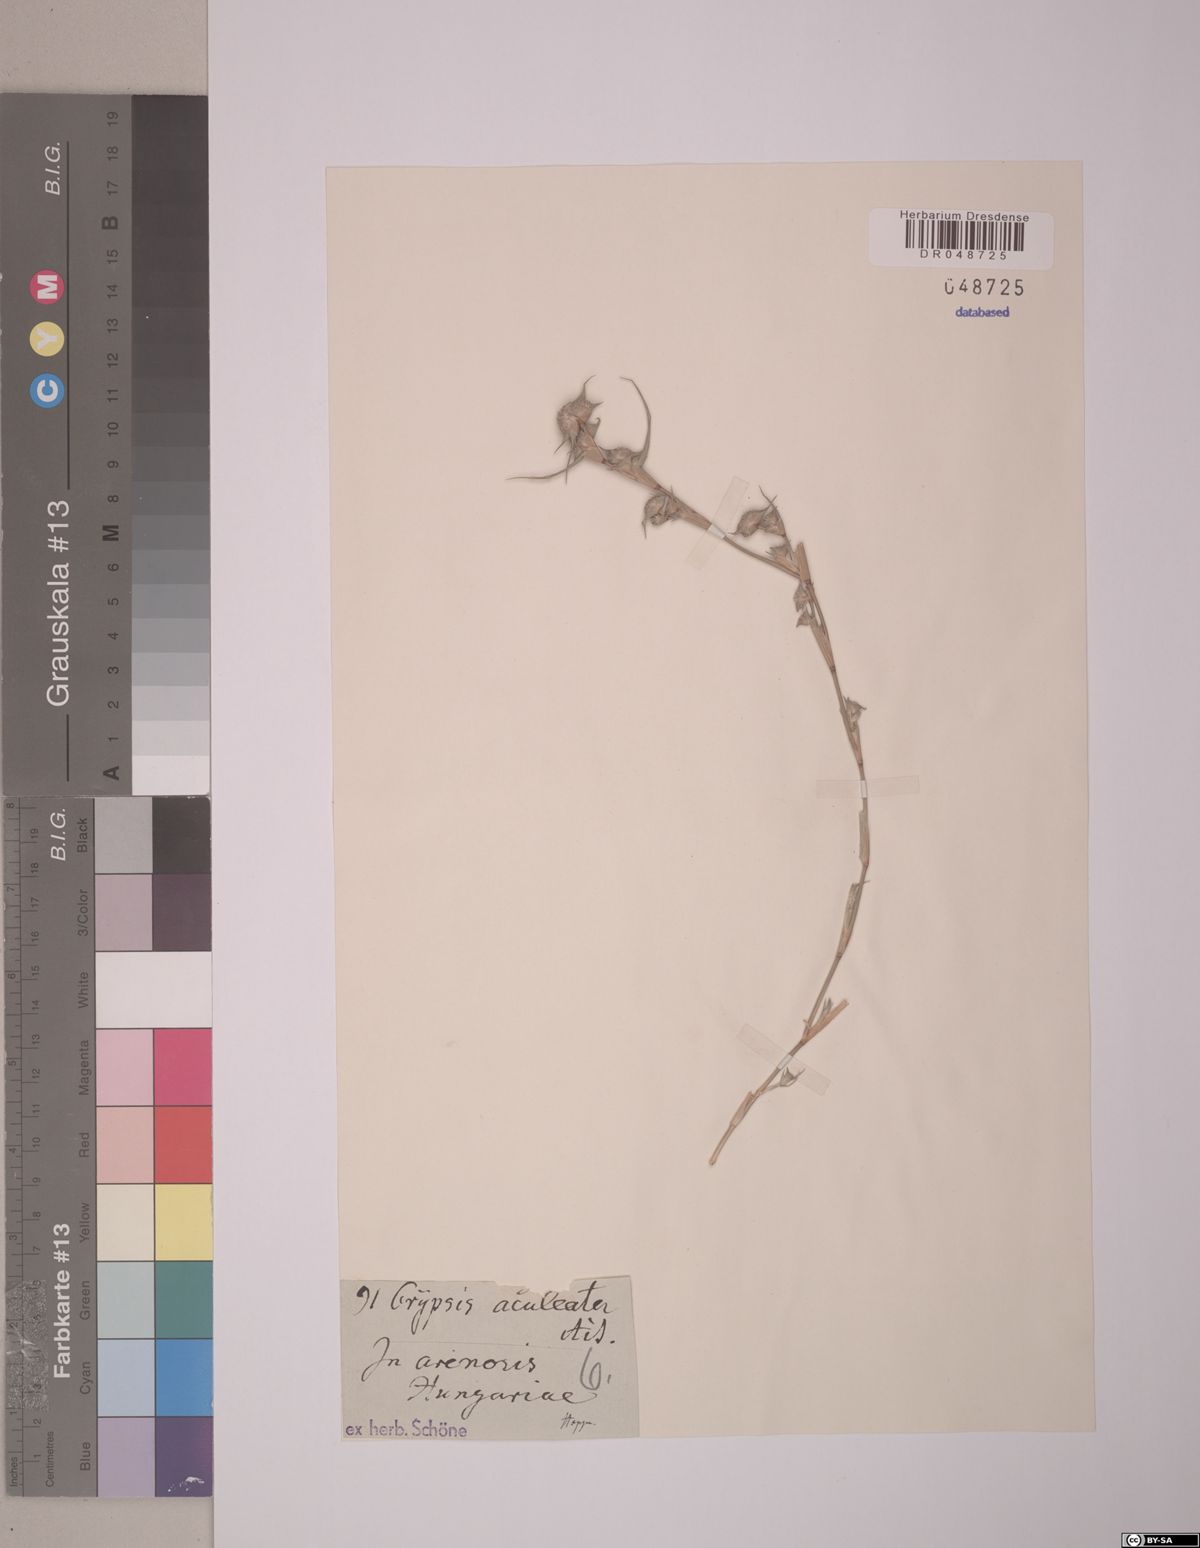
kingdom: Plantae
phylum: Tracheophyta
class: Liliopsida
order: Poales
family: Poaceae
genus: Sporobolus
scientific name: Sporobolus aculeatus
